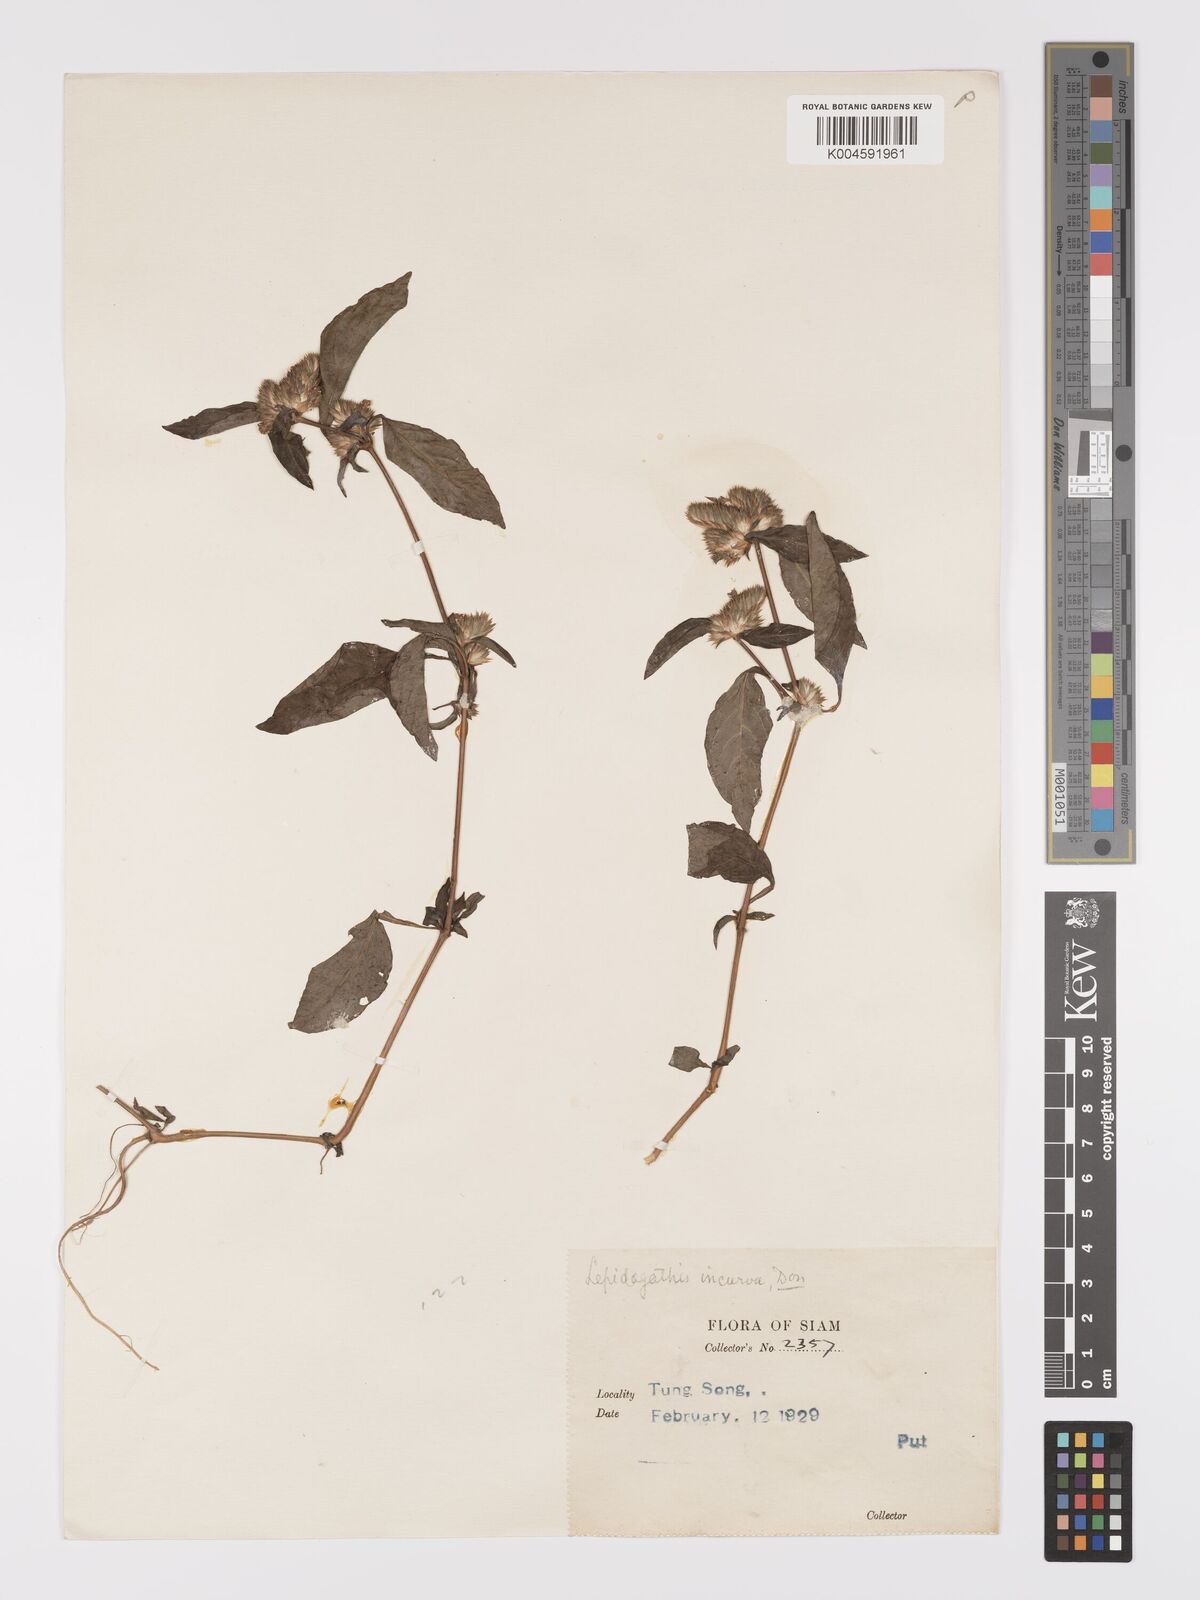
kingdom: Plantae
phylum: Tracheophyta
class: Magnoliopsida
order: Lamiales
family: Acanthaceae
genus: Lepidagathis
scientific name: Lepidagathis incurva
